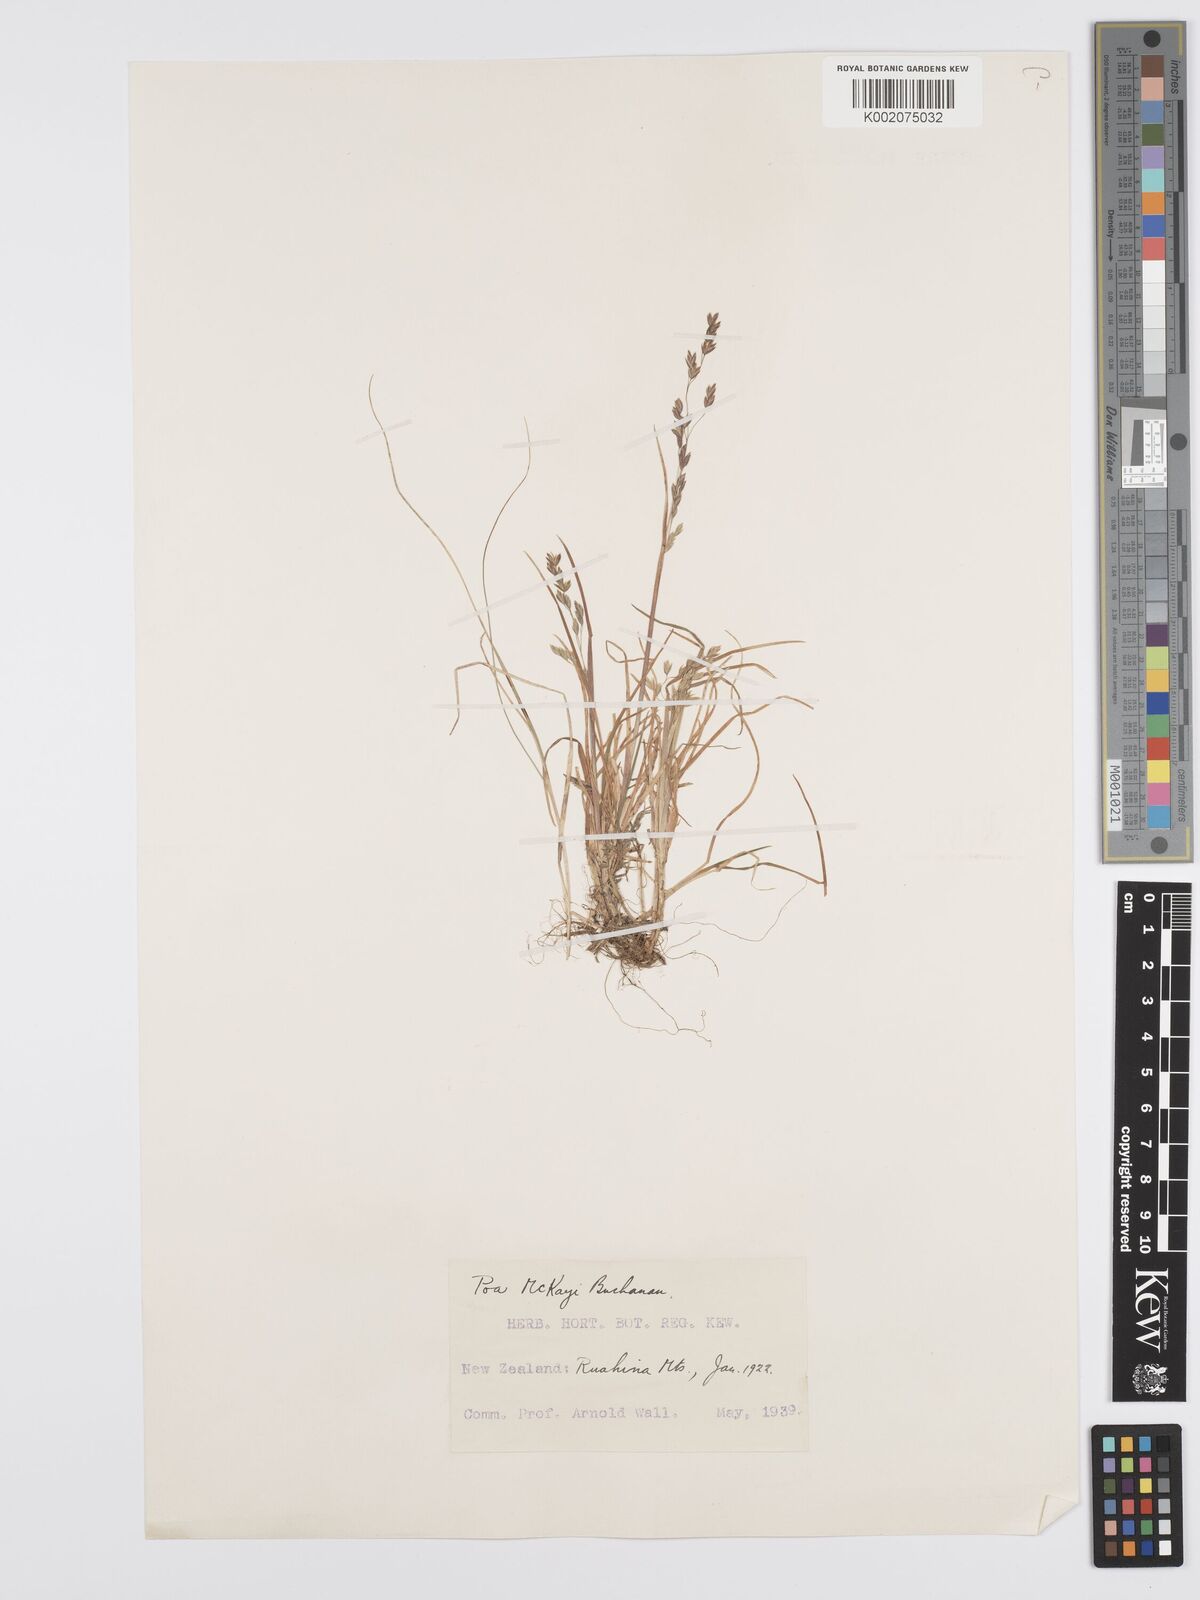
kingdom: Plantae
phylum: Tracheophyta
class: Liliopsida
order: Poales
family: Poaceae
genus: Poa
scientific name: Poa kirkii
